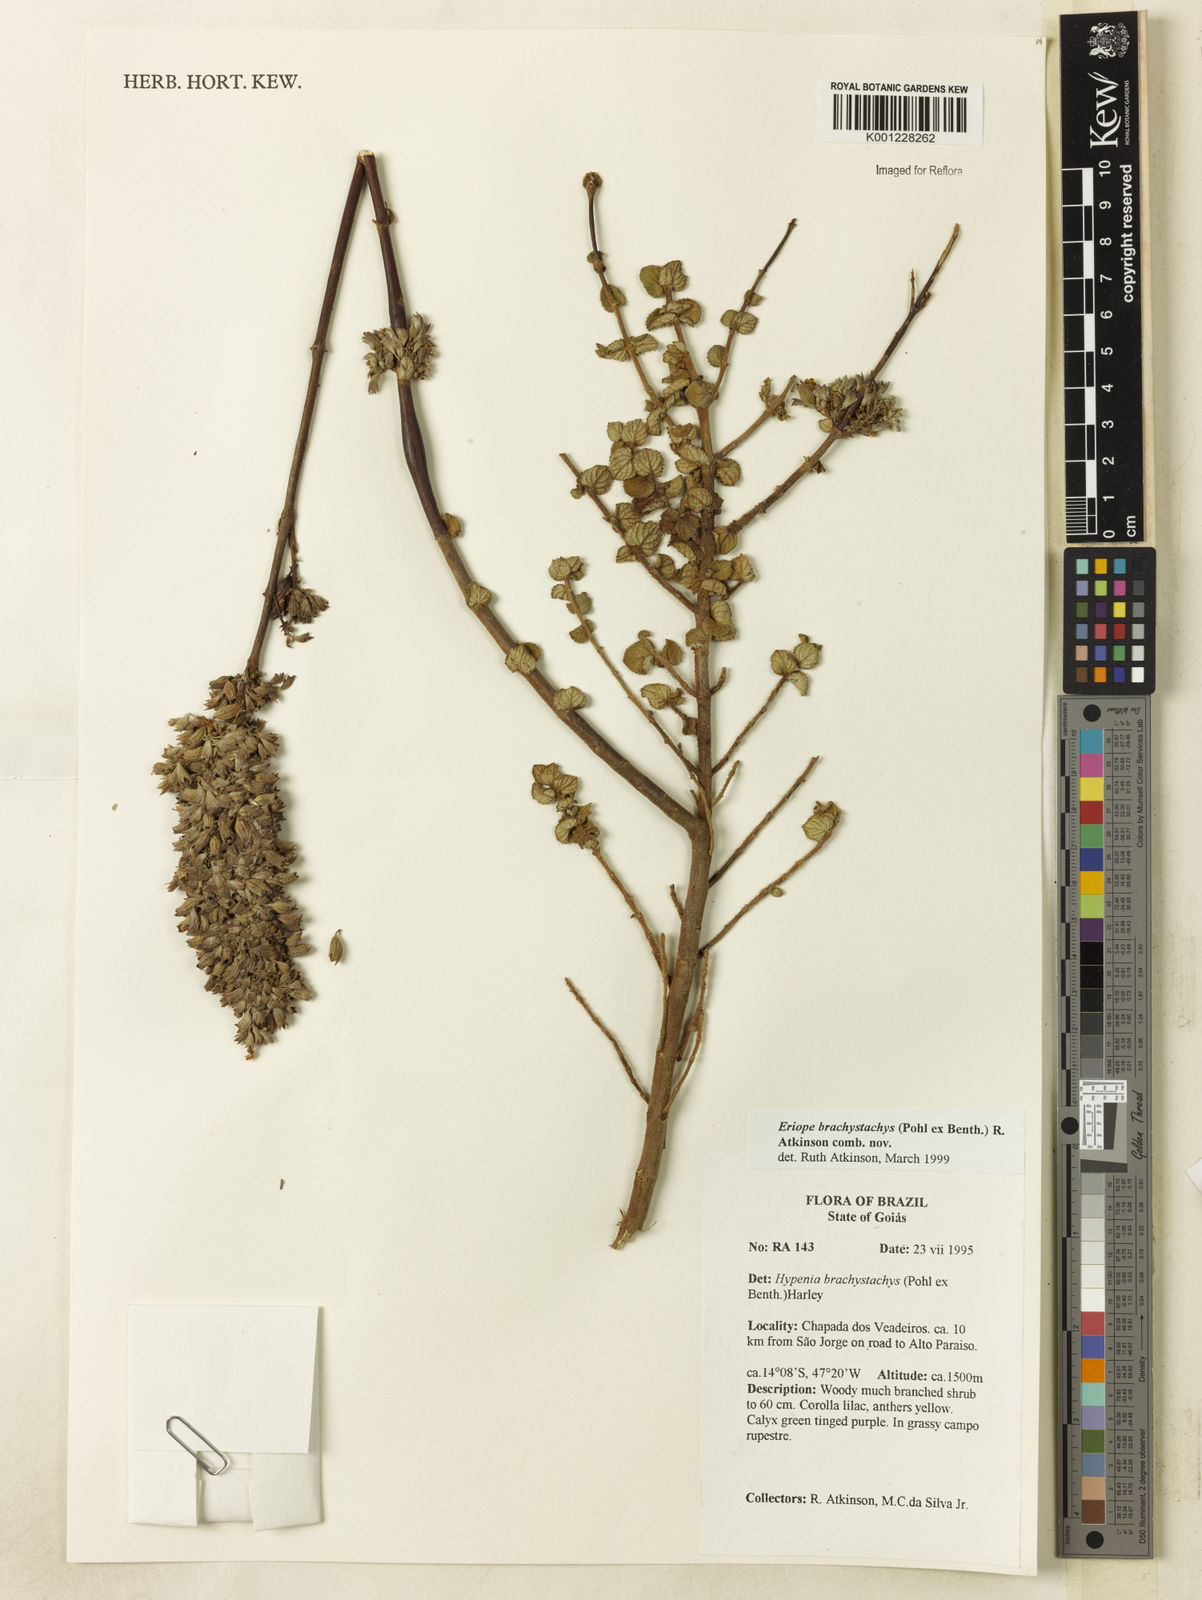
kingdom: Plantae
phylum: Tracheophyta
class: Magnoliopsida
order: Lamiales
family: Lamiaceae
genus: Hypenia
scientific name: Hypenia brachystachys
